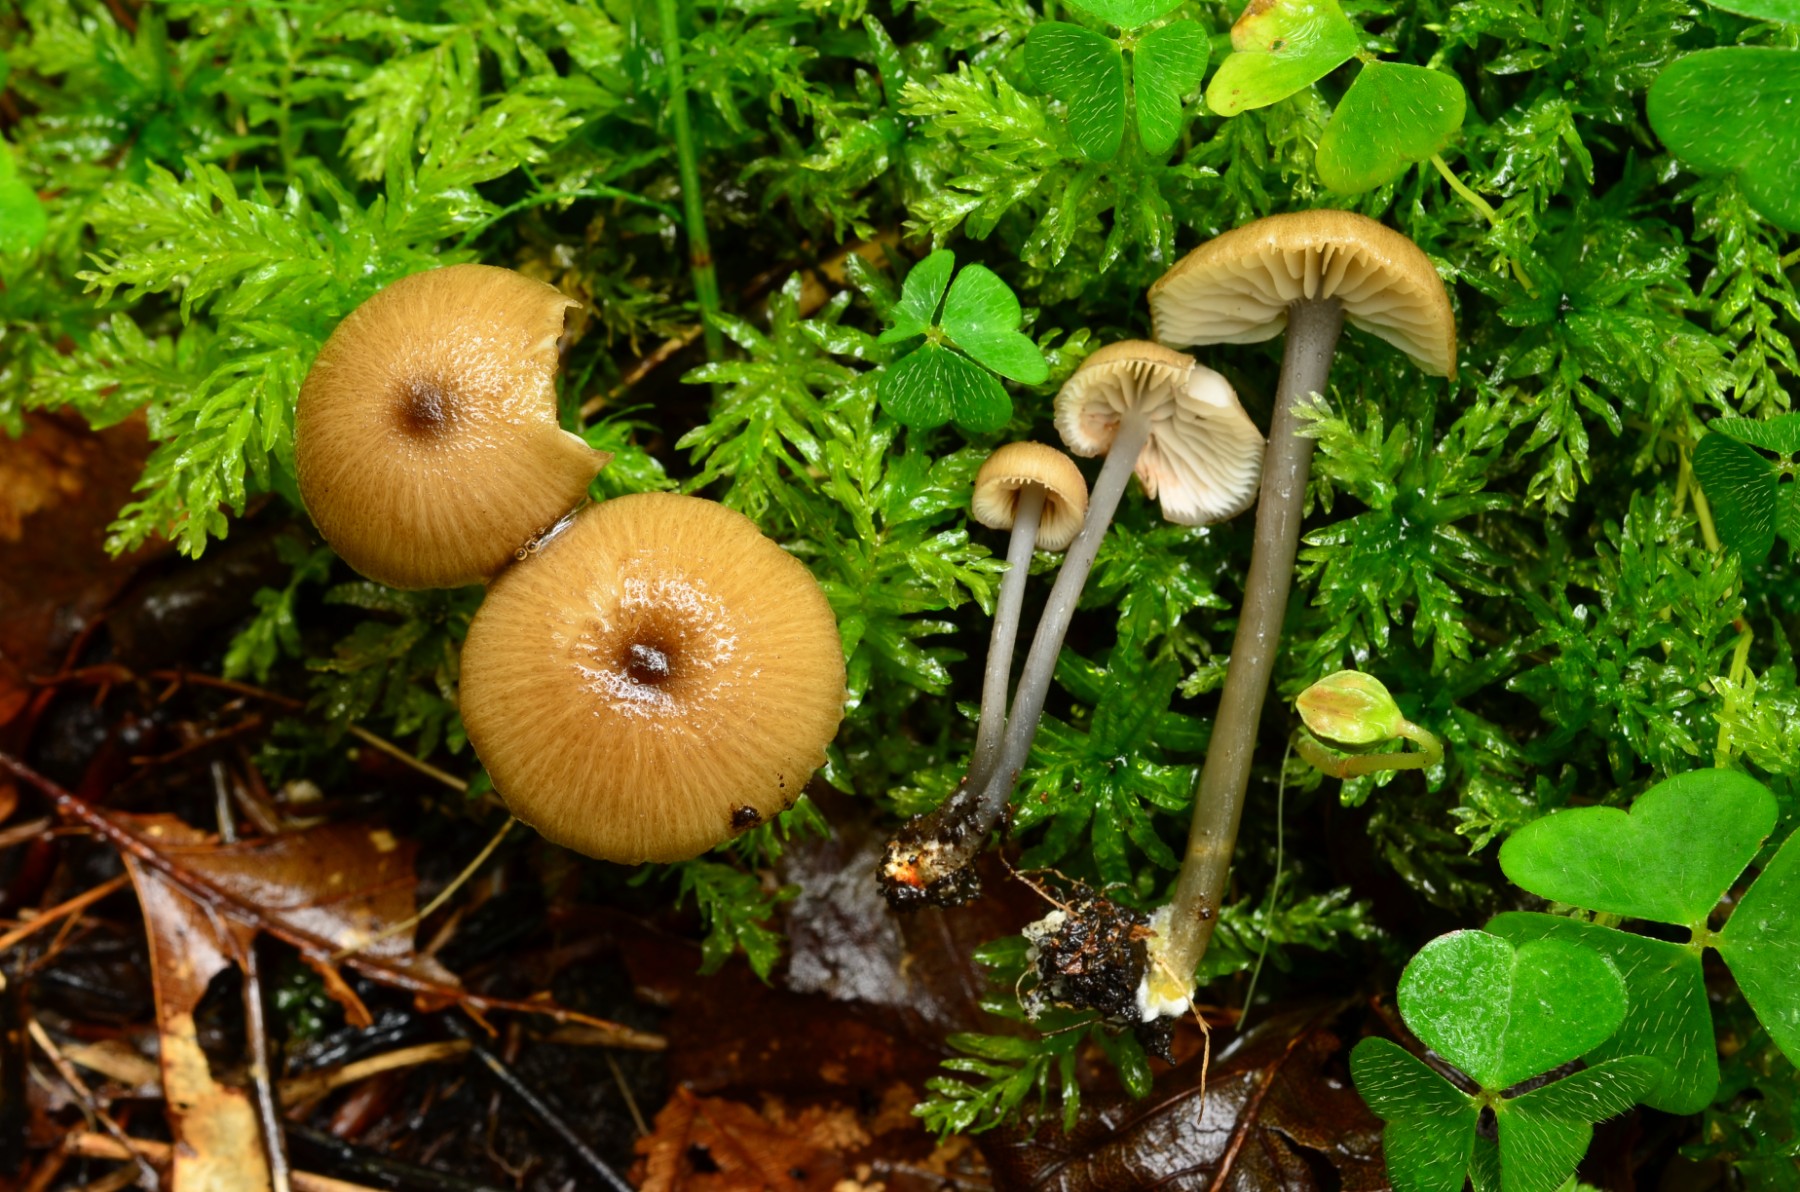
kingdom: Fungi
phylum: Basidiomycota
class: Agaricomycetes
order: Agaricales
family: Entolomataceae
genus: Entoloma
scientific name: Entoloma lividocyanulum
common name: mørkøjet rødblad
